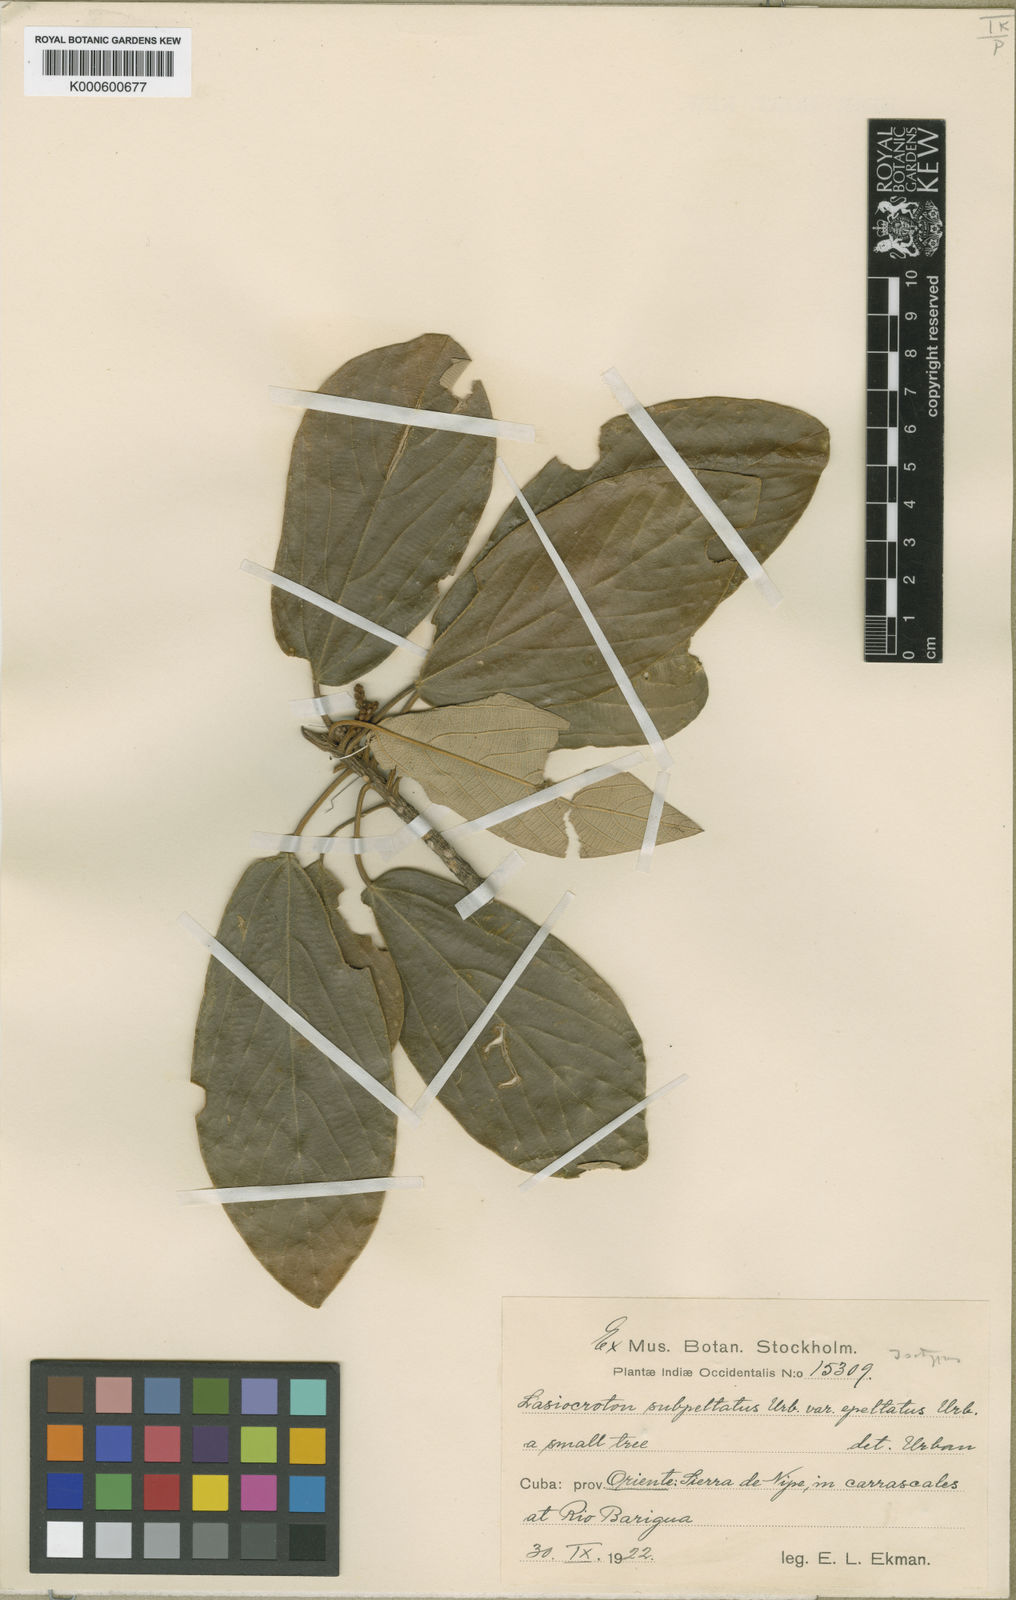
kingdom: Plantae
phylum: Tracheophyta
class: Magnoliopsida
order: Malpighiales
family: Euphorbiaceae
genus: Leucocroton
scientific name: Leucocroton subpeltatus
